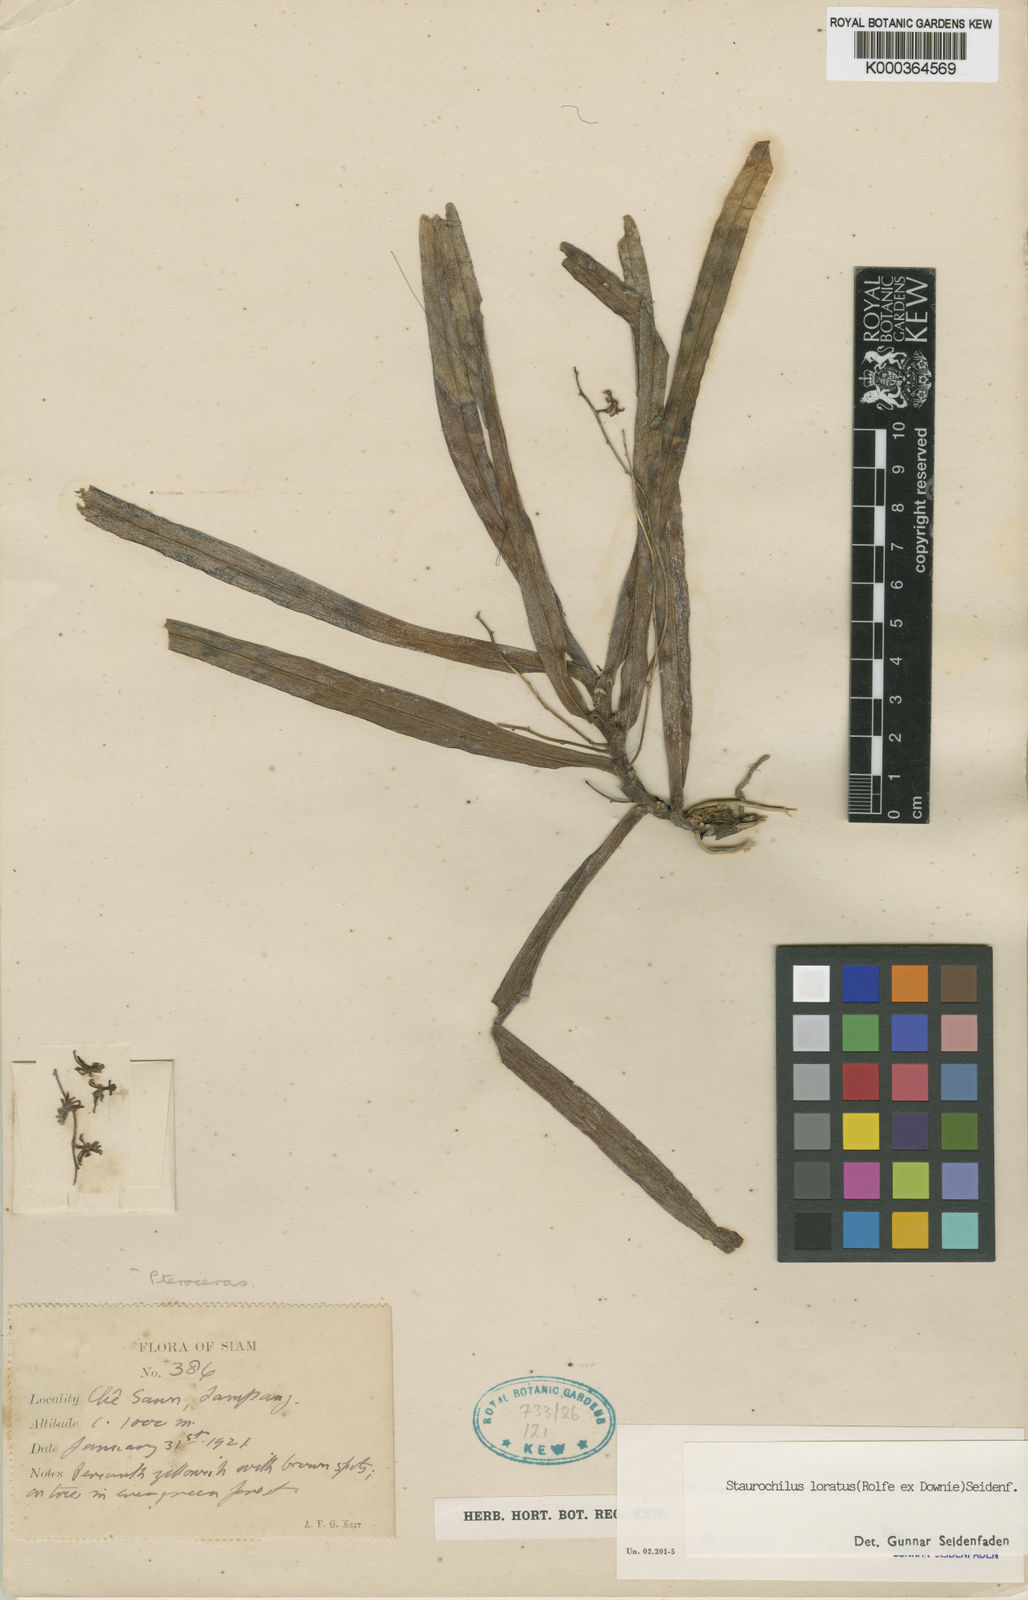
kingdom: Plantae
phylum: Tracheophyta
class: Liliopsida
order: Asparagales
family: Orchidaceae
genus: Trichoglottis
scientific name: Trichoglottis lorata
